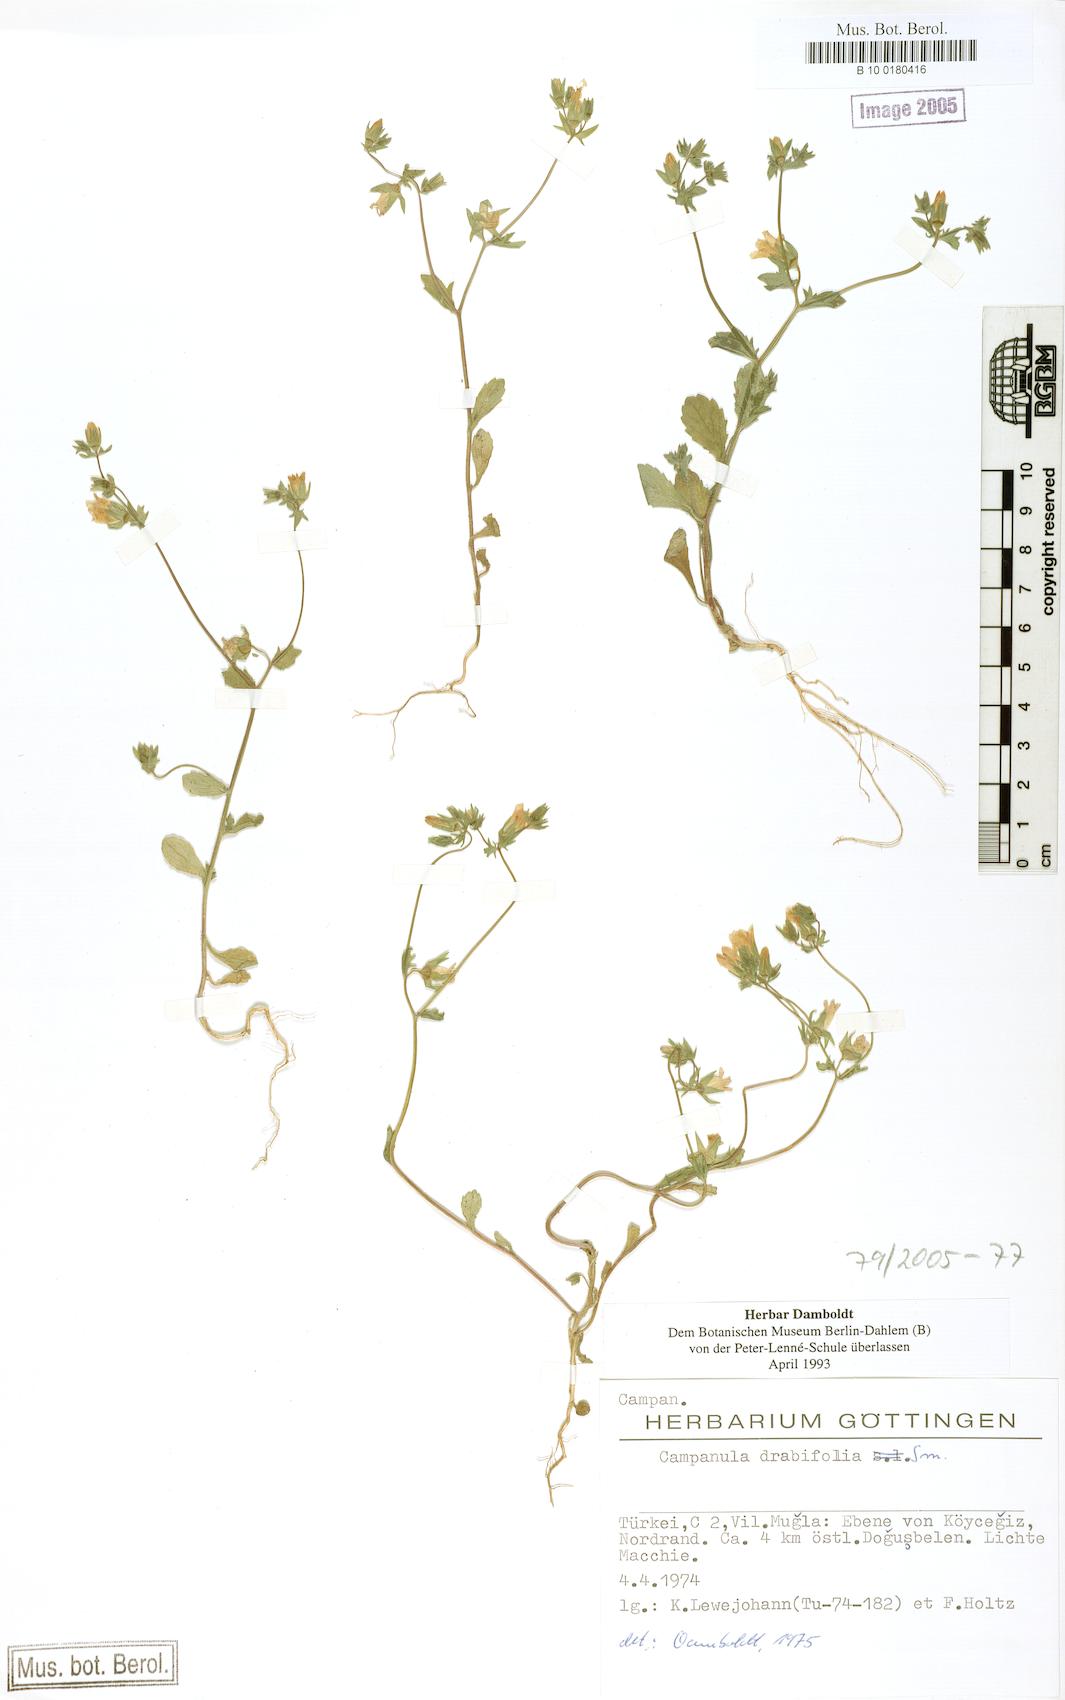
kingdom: Plantae
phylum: Tracheophyta
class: Magnoliopsida
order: Asterales
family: Campanulaceae
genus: Campanula
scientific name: Campanula drabifolia
